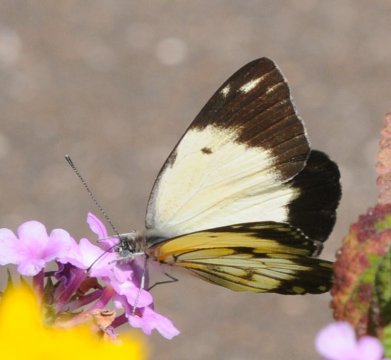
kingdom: Animalia
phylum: Arthropoda
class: Insecta
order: Lepidoptera
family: Pieridae
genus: Belenois
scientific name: Belenois creona
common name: African Caper
